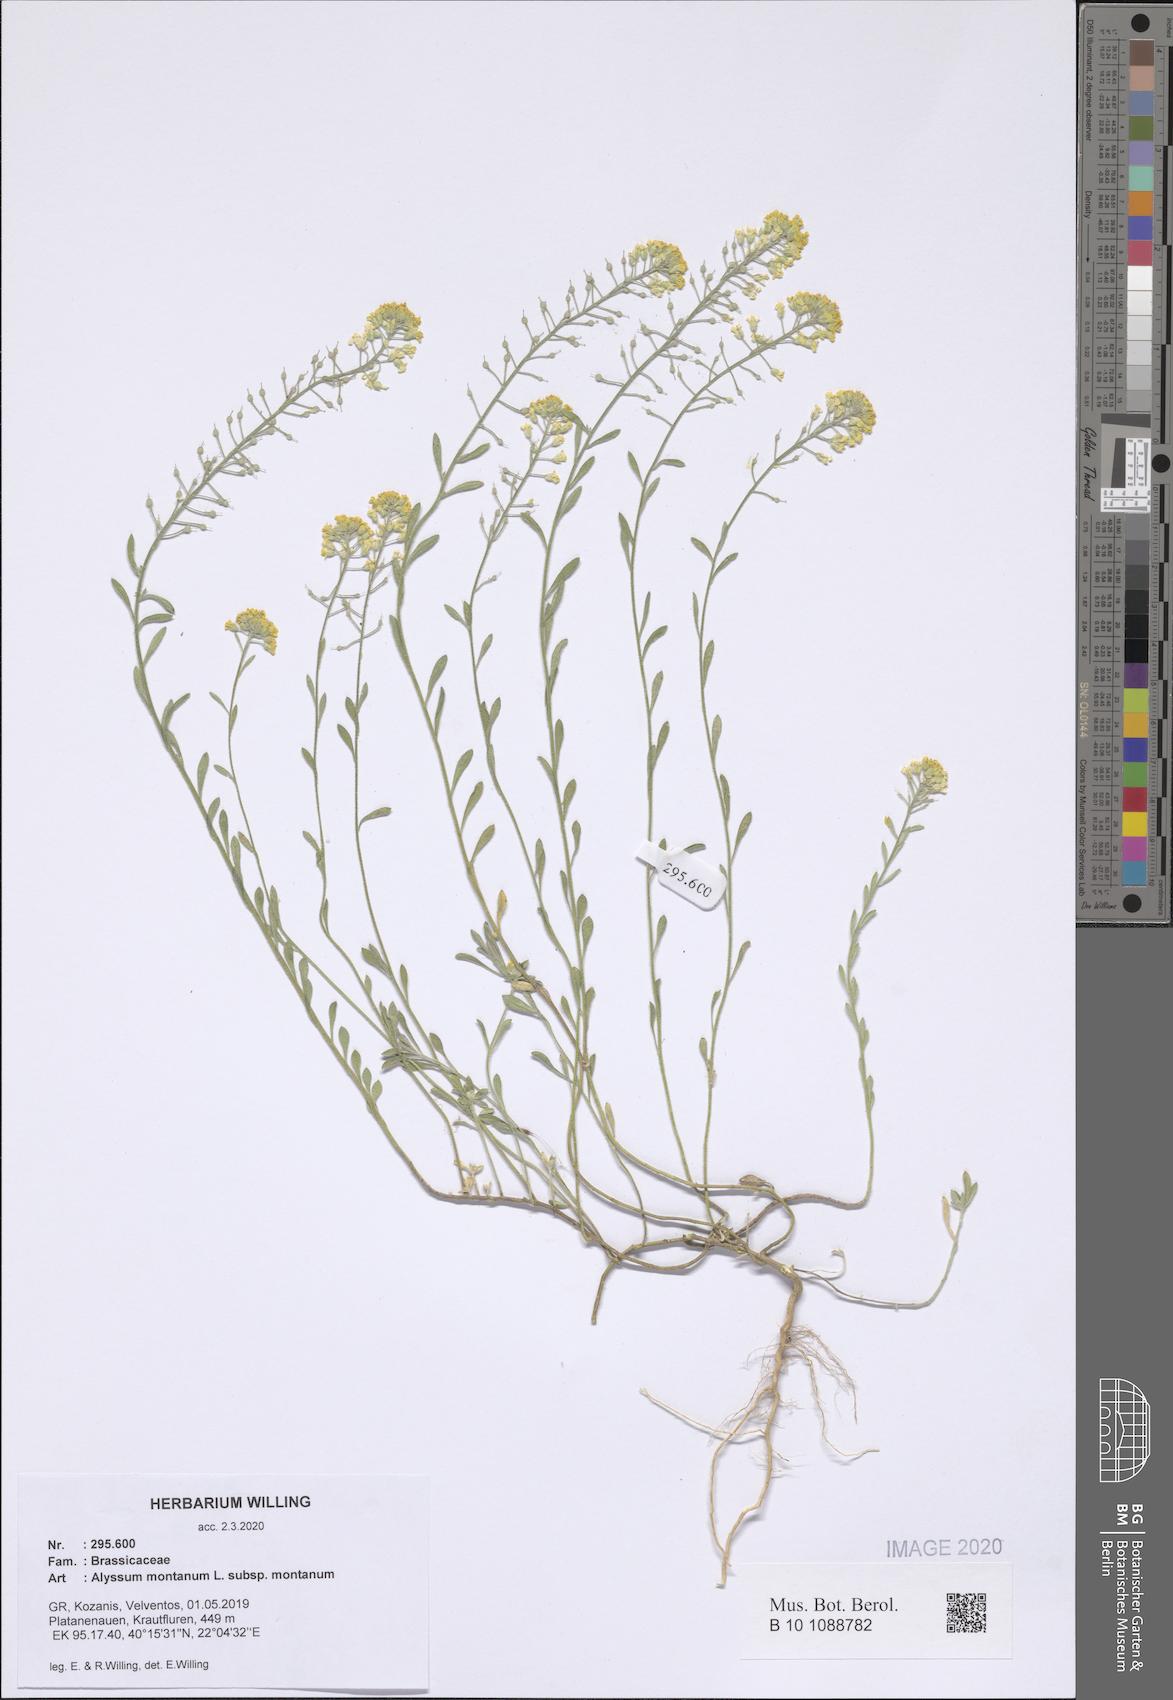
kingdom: Plantae
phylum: Tracheophyta
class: Magnoliopsida
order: Brassicales
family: Brassicaceae
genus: Alyssum
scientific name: Alyssum montanum
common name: Mountain alison
